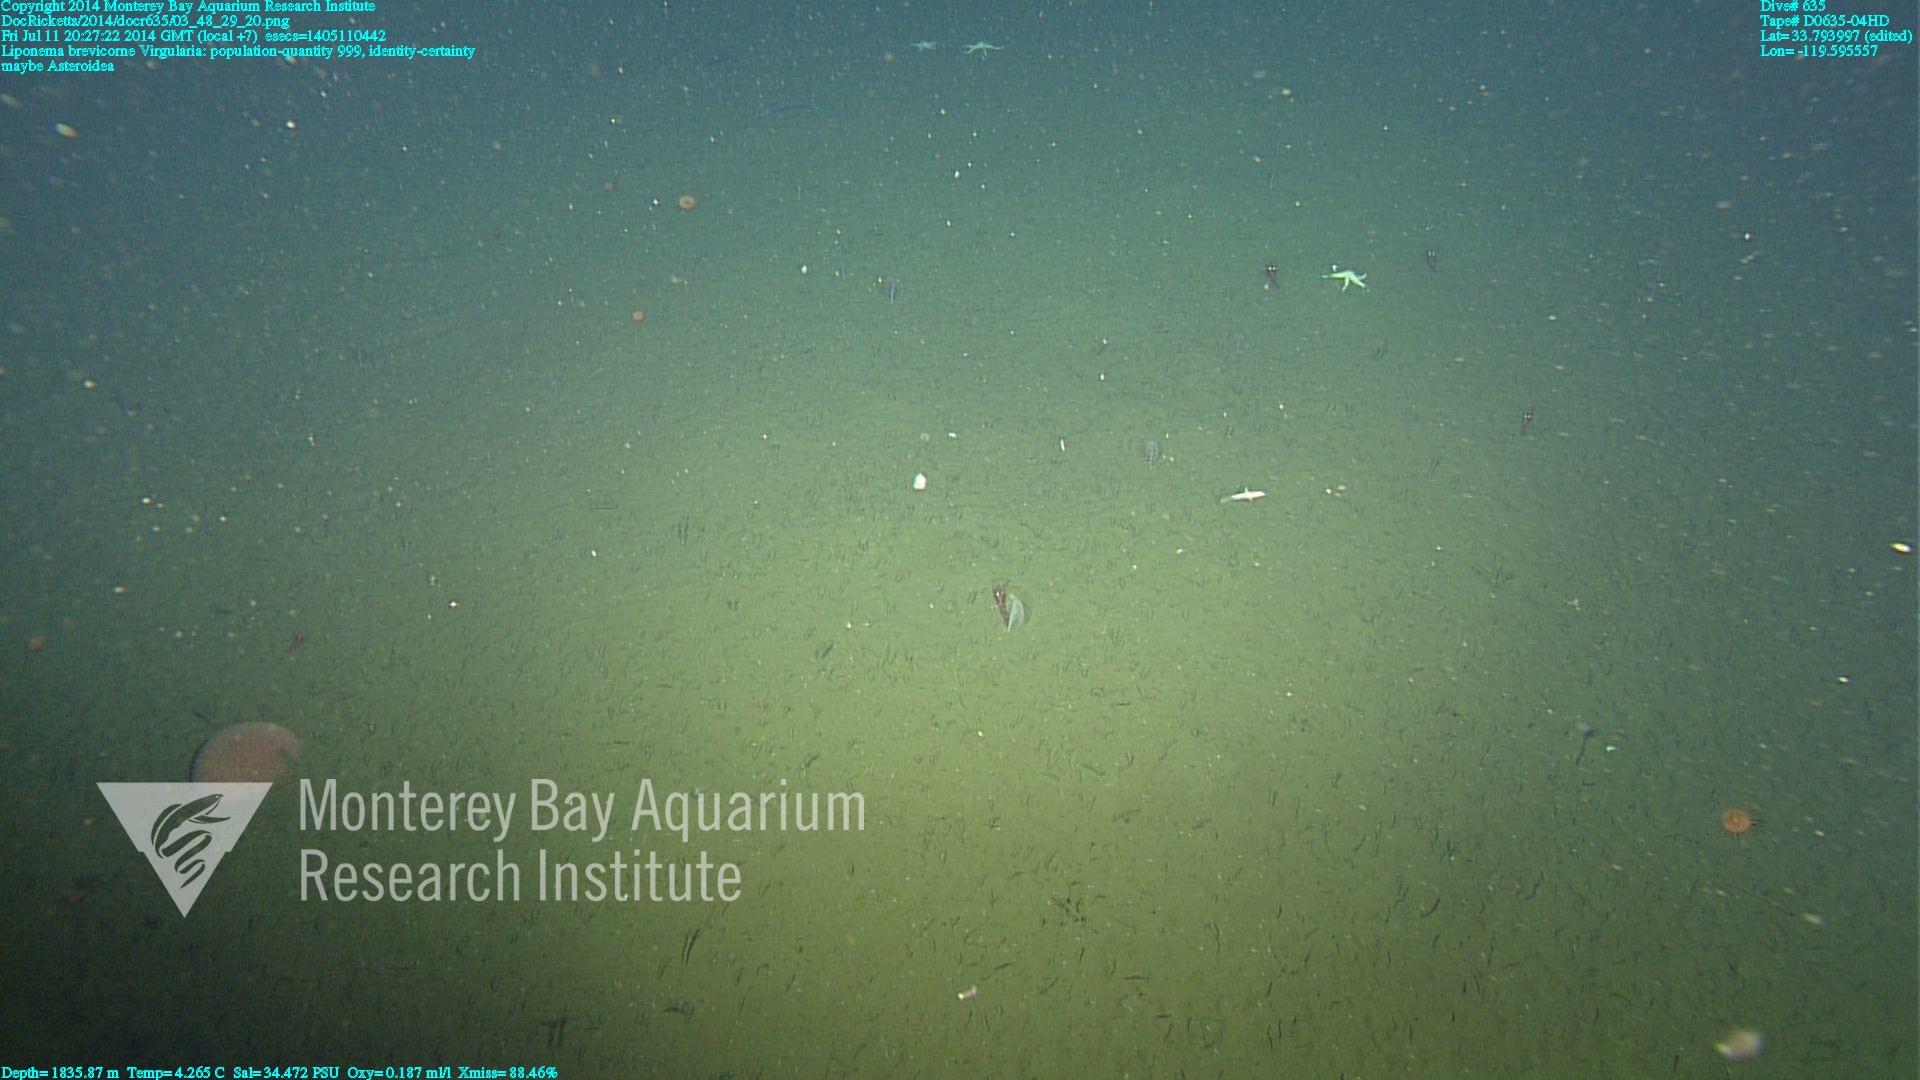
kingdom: Animalia
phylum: Cnidaria
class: Anthozoa
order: Scleralcyonacea
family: Virgulariidae
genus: Virgularia
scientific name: Virgularia
